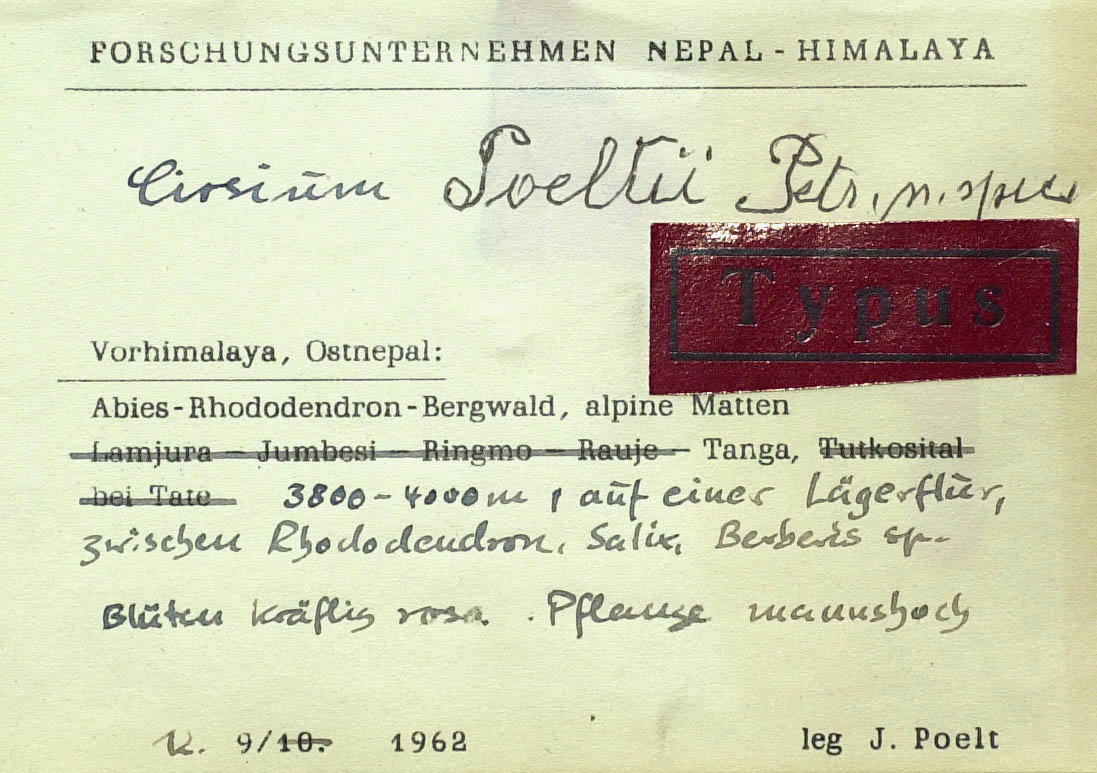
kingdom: Plantae
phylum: Tracheophyta
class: Magnoliopsida
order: Asterales
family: Asteraceae
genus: Cirsium
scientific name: Cirsium poeltii
